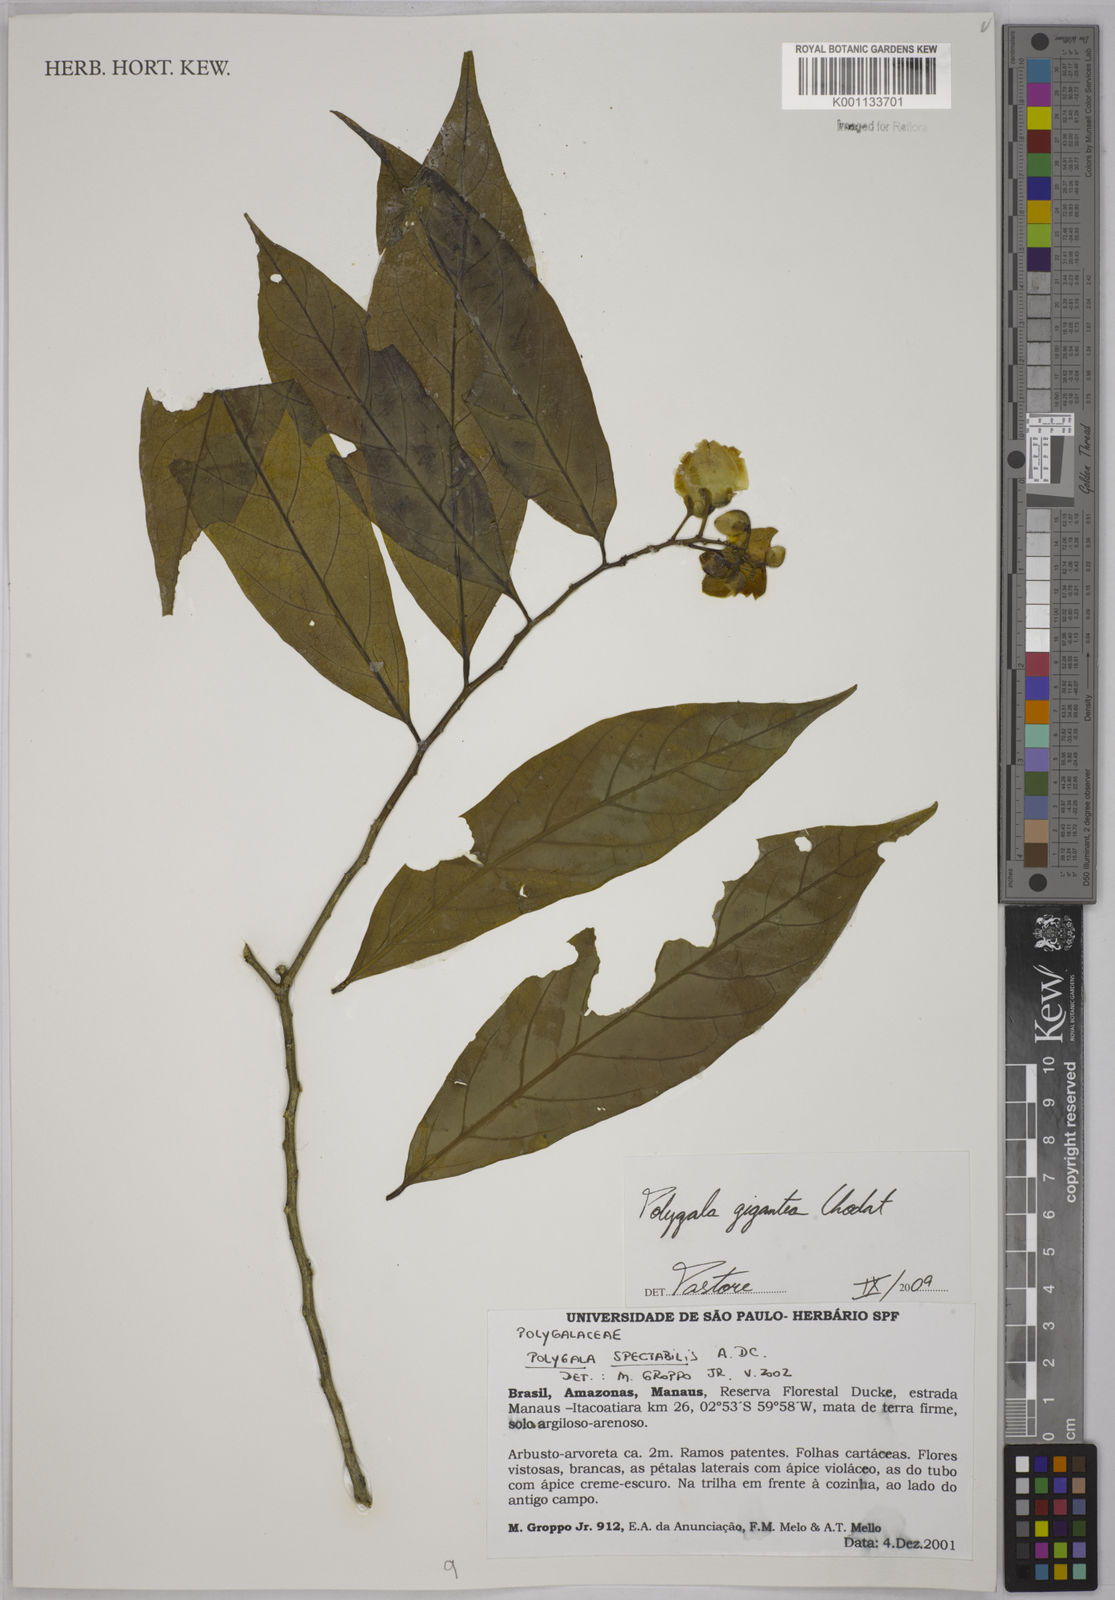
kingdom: Plantae
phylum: Tracheophyta
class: Magnoliopsida
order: Fabales
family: Polygalaceae
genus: Caamembeca
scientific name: Caamembeca gigantea
